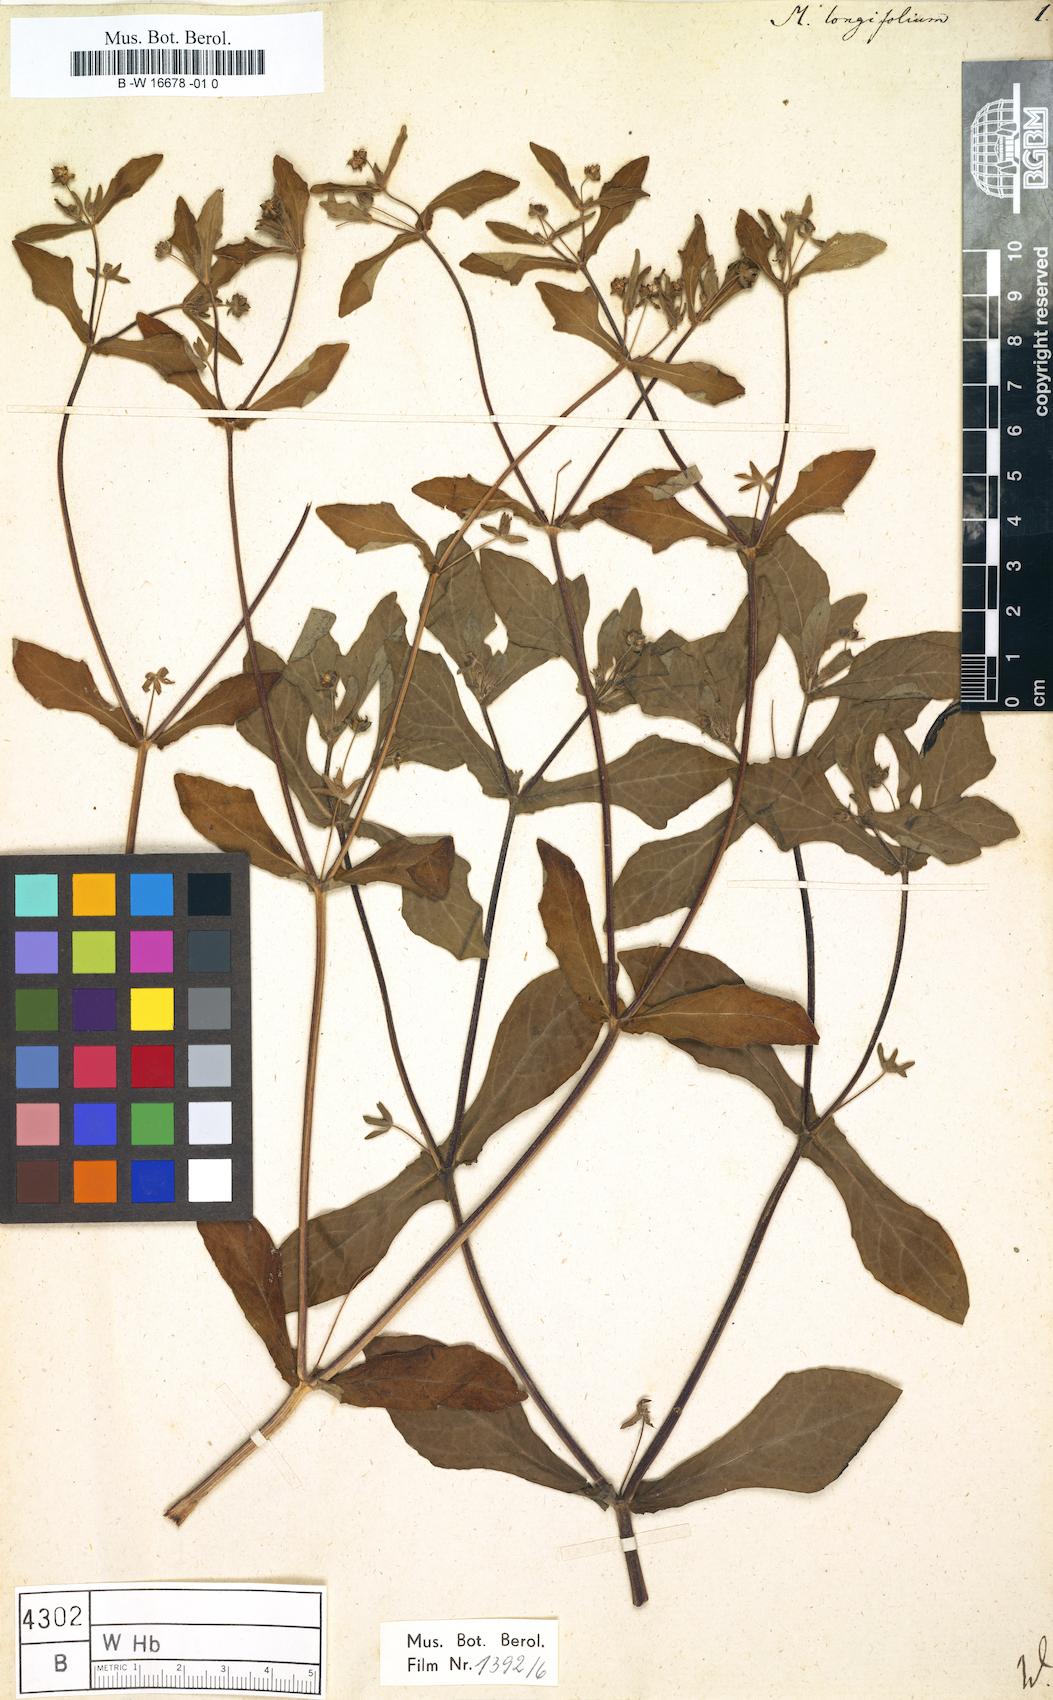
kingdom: Plantae
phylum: Tracheophyta
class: Magnoliopsida
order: Asterales
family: Asteraceae
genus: Melampodium
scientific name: Melampodium longifolium
